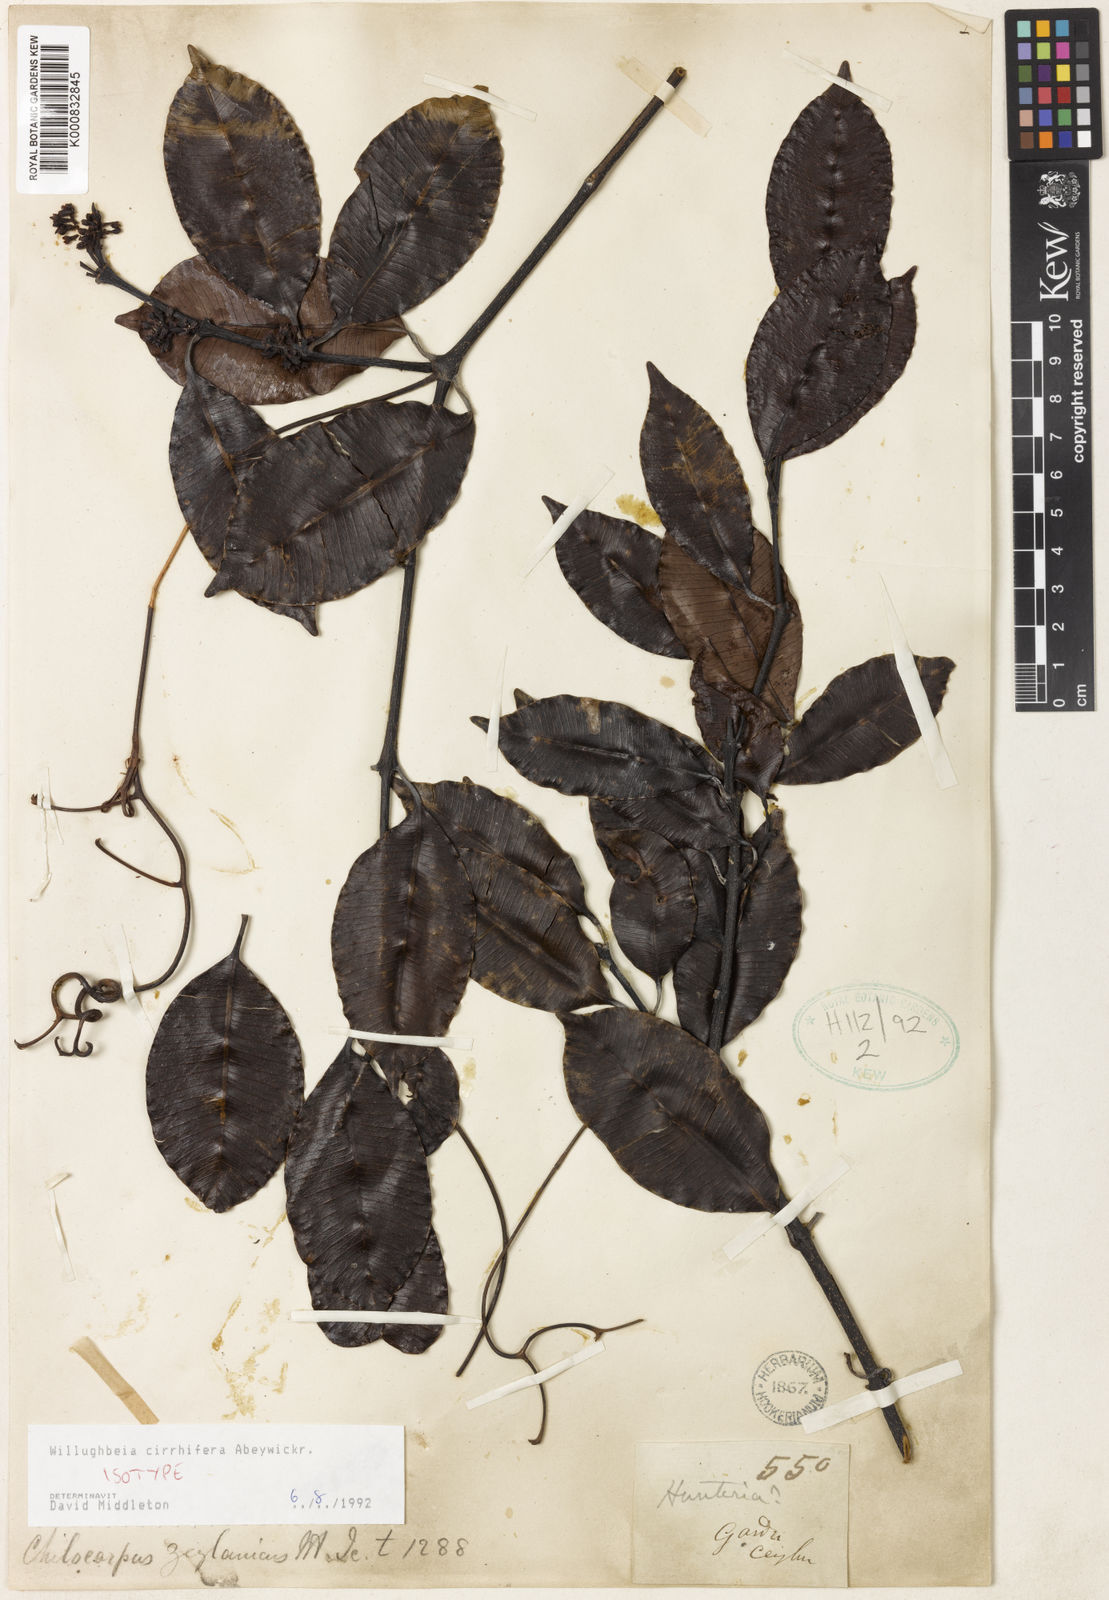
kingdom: Plantae
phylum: Tracheophyta
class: Magnoliopsida
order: Gentianales
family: Apocynaceae
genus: Willughbeia
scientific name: Willughbeia cirrhifera
